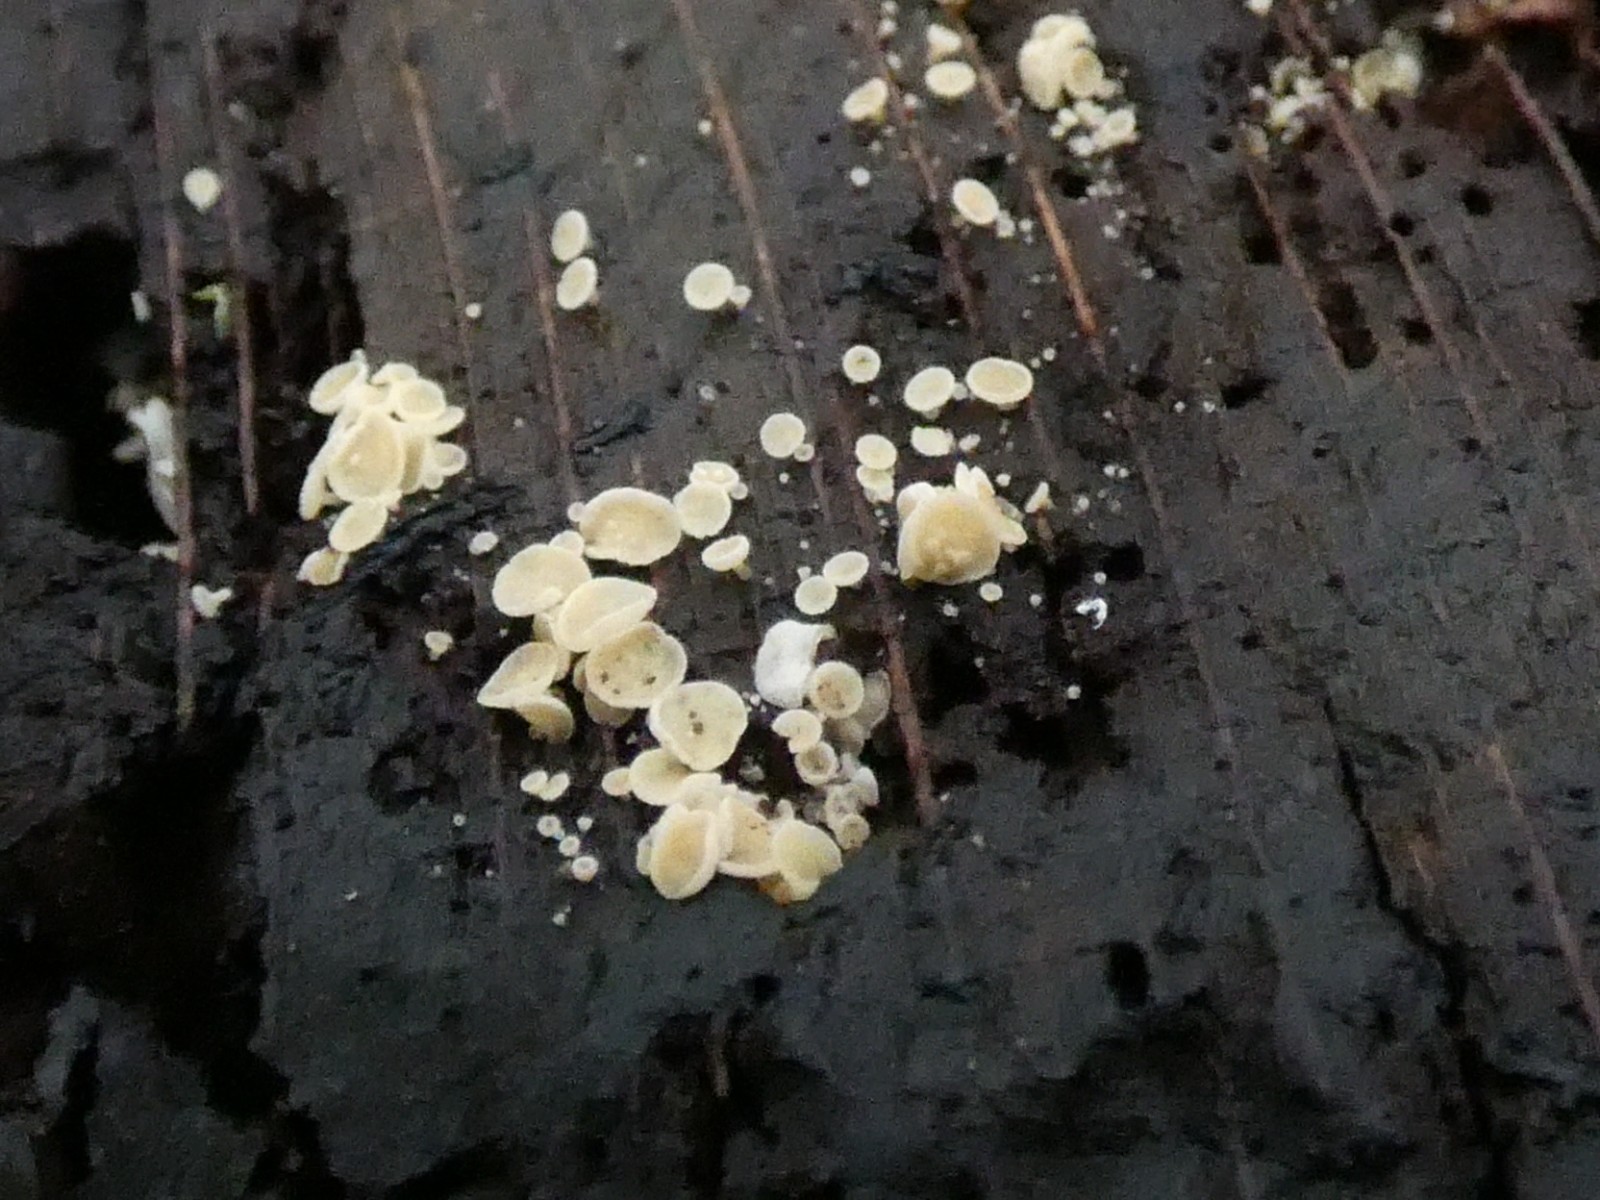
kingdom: Fungi
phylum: Ascomycota
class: Leotiomycetes
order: Helotiales
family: Lachnaceae
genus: Dasyscyphella
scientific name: Dasyscyphella nivea
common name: hvid frynseskive
